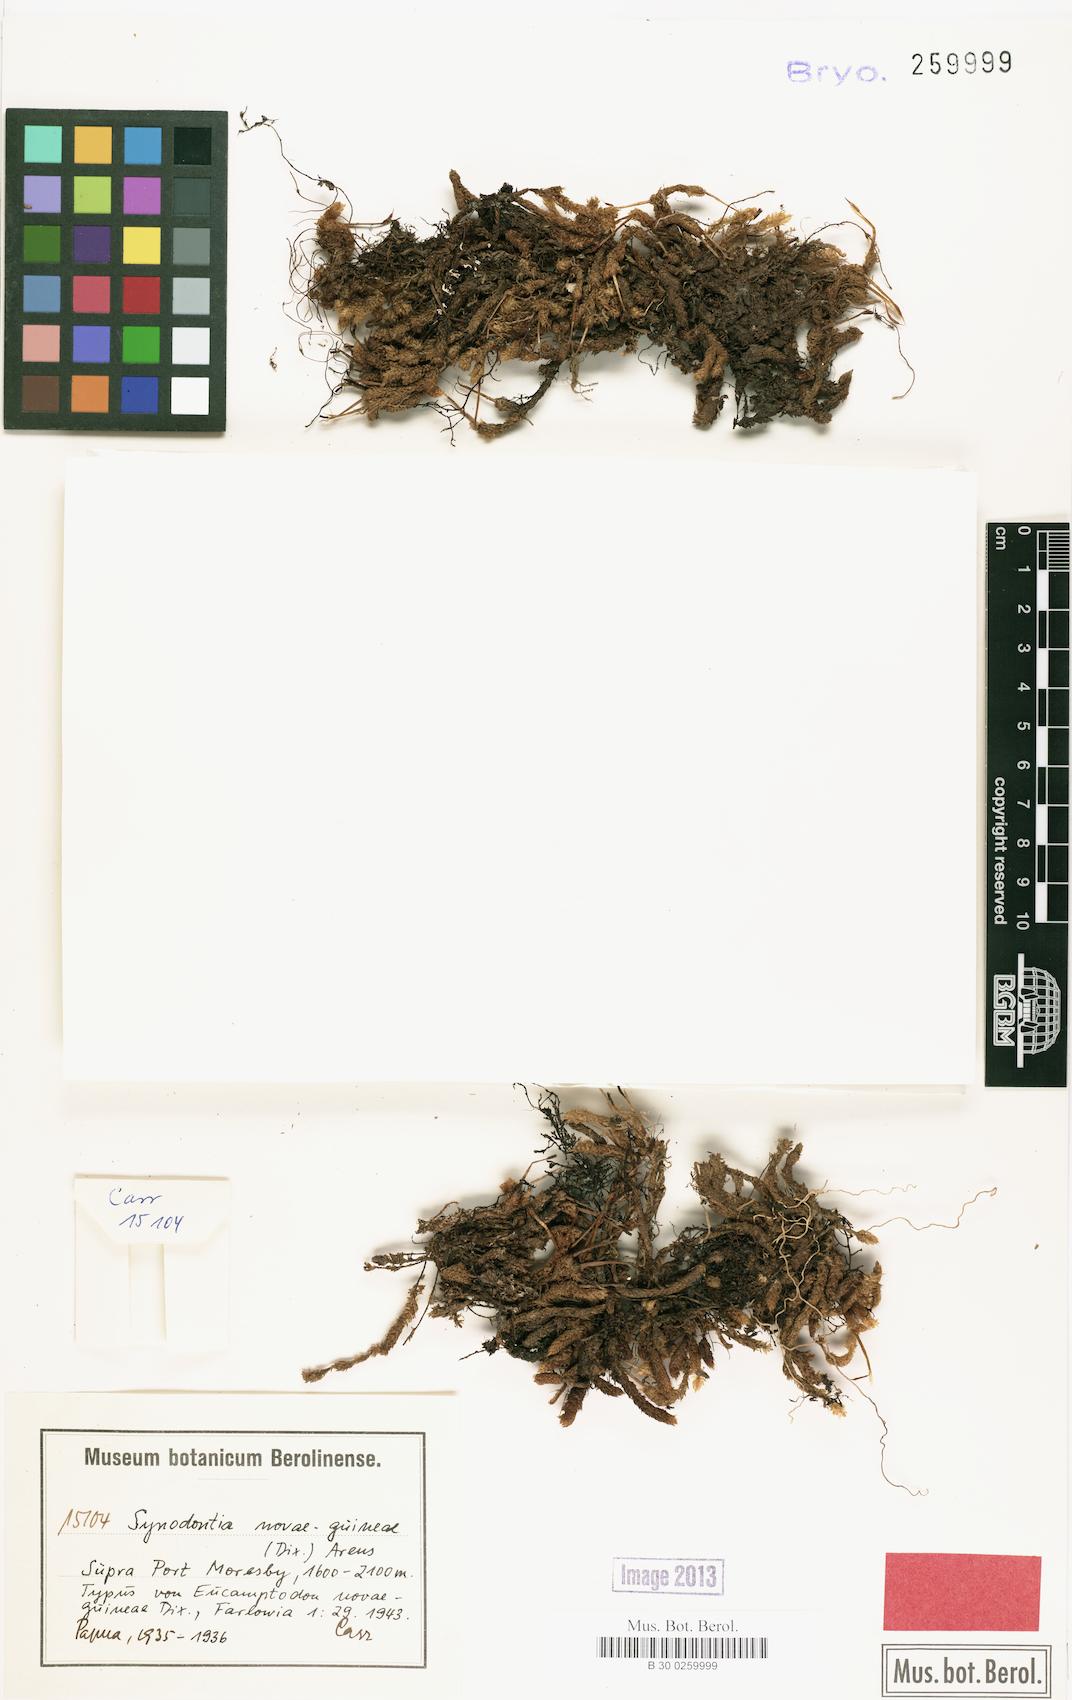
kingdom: Plantae
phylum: Bryophyta
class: Bryopsida
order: Dicranales
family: Dicranaceae
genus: Dicnemon
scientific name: Dicnemon novae-guineae
